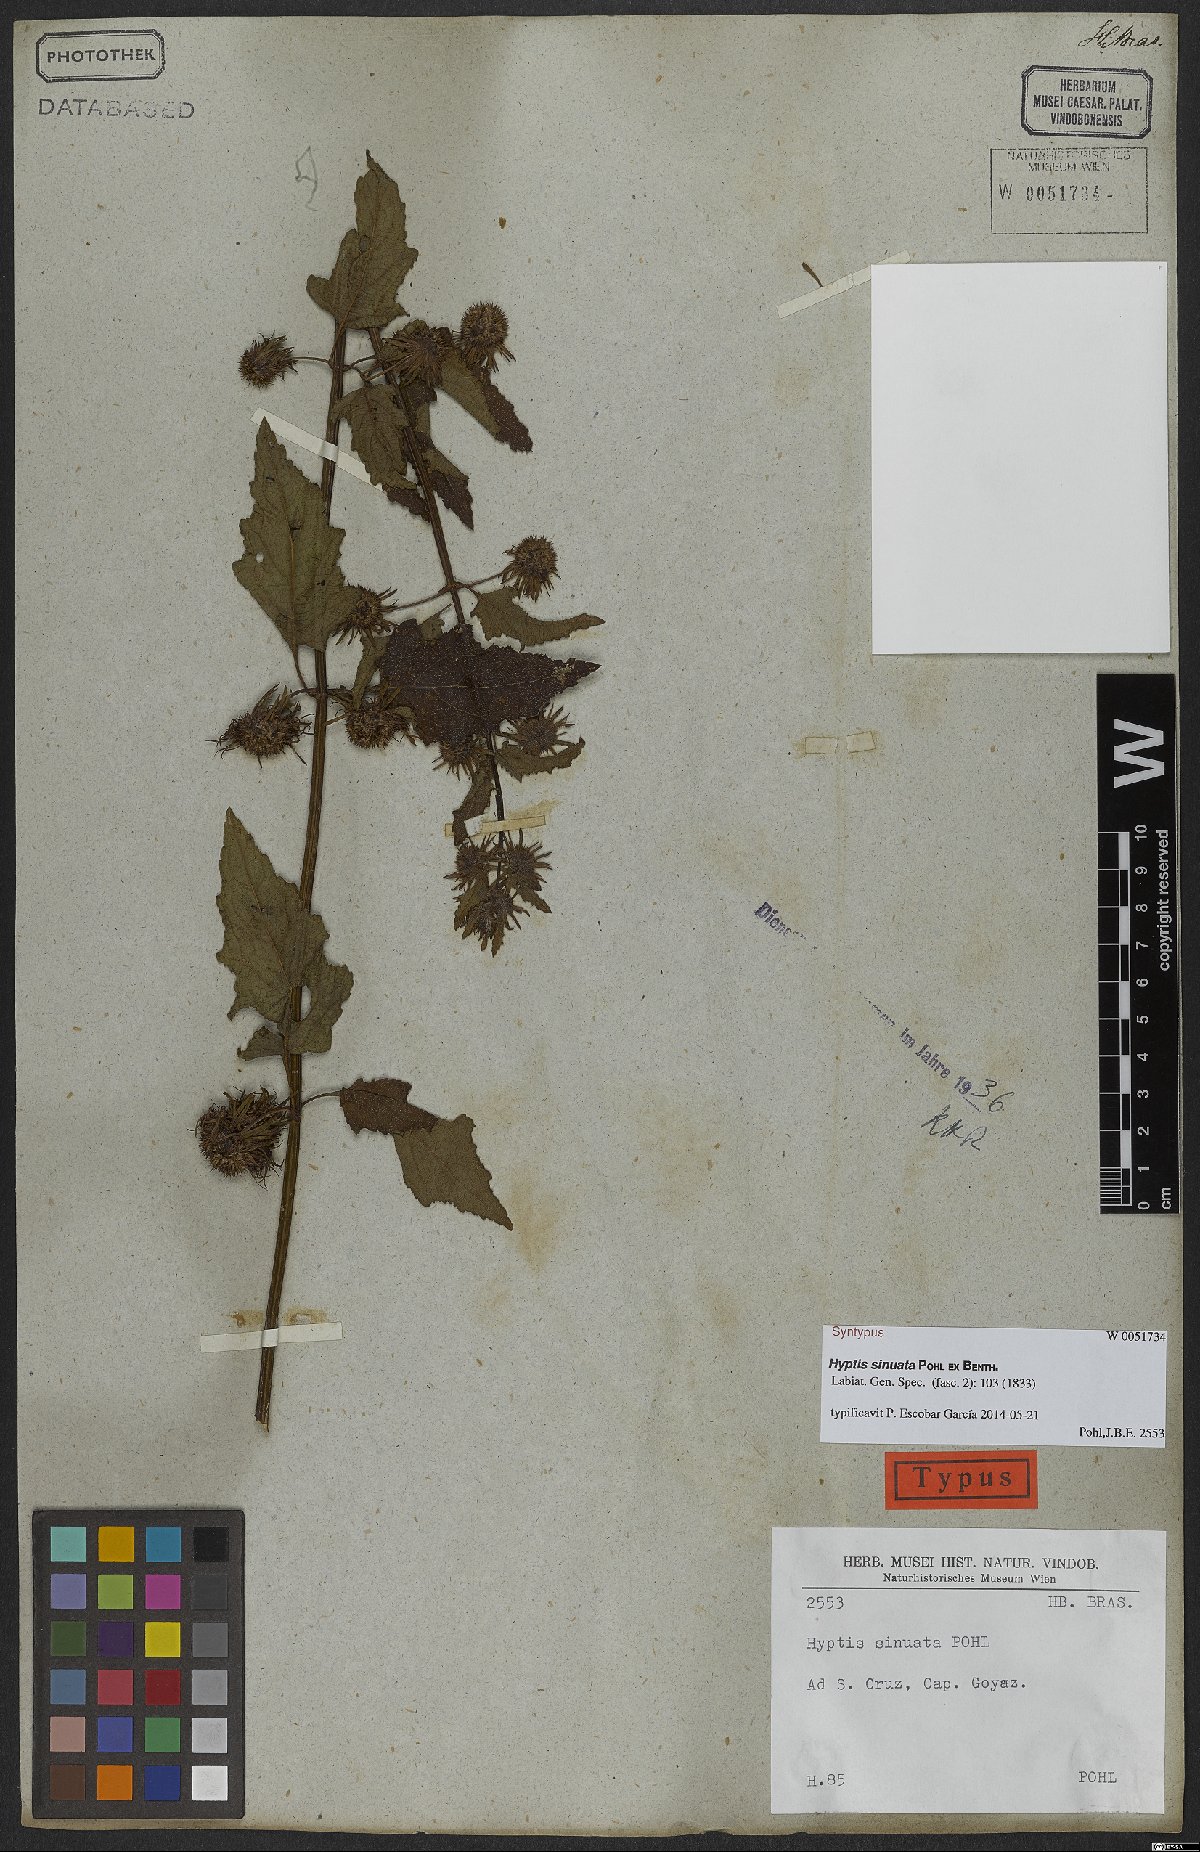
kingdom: Plantae
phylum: Tracheophyta
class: Magnoliopsida
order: Lamiales
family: Lamiaceae
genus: Hyptis
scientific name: Hyptis sinuata
